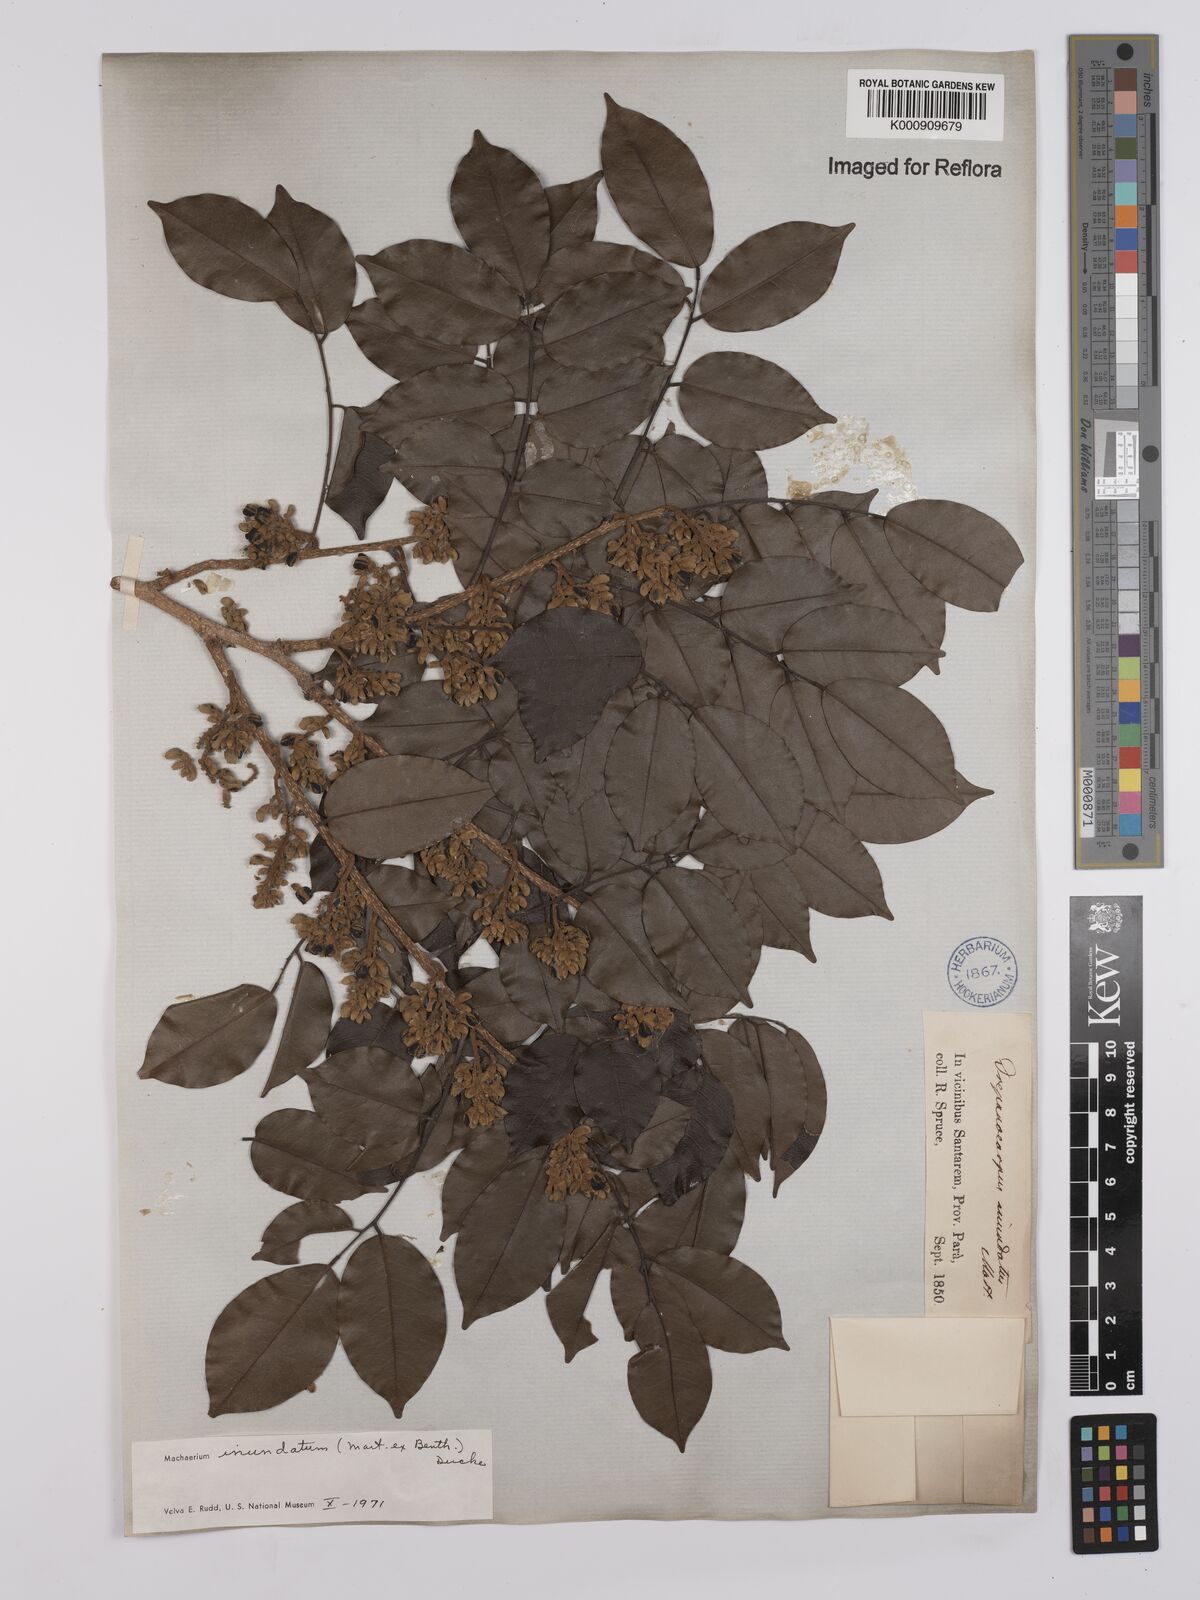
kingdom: Plantae
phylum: Tracheophyta
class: Magnoliopsida
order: Fabales
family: Fabaceae
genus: Machaerium
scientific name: Machaerium inundatum
